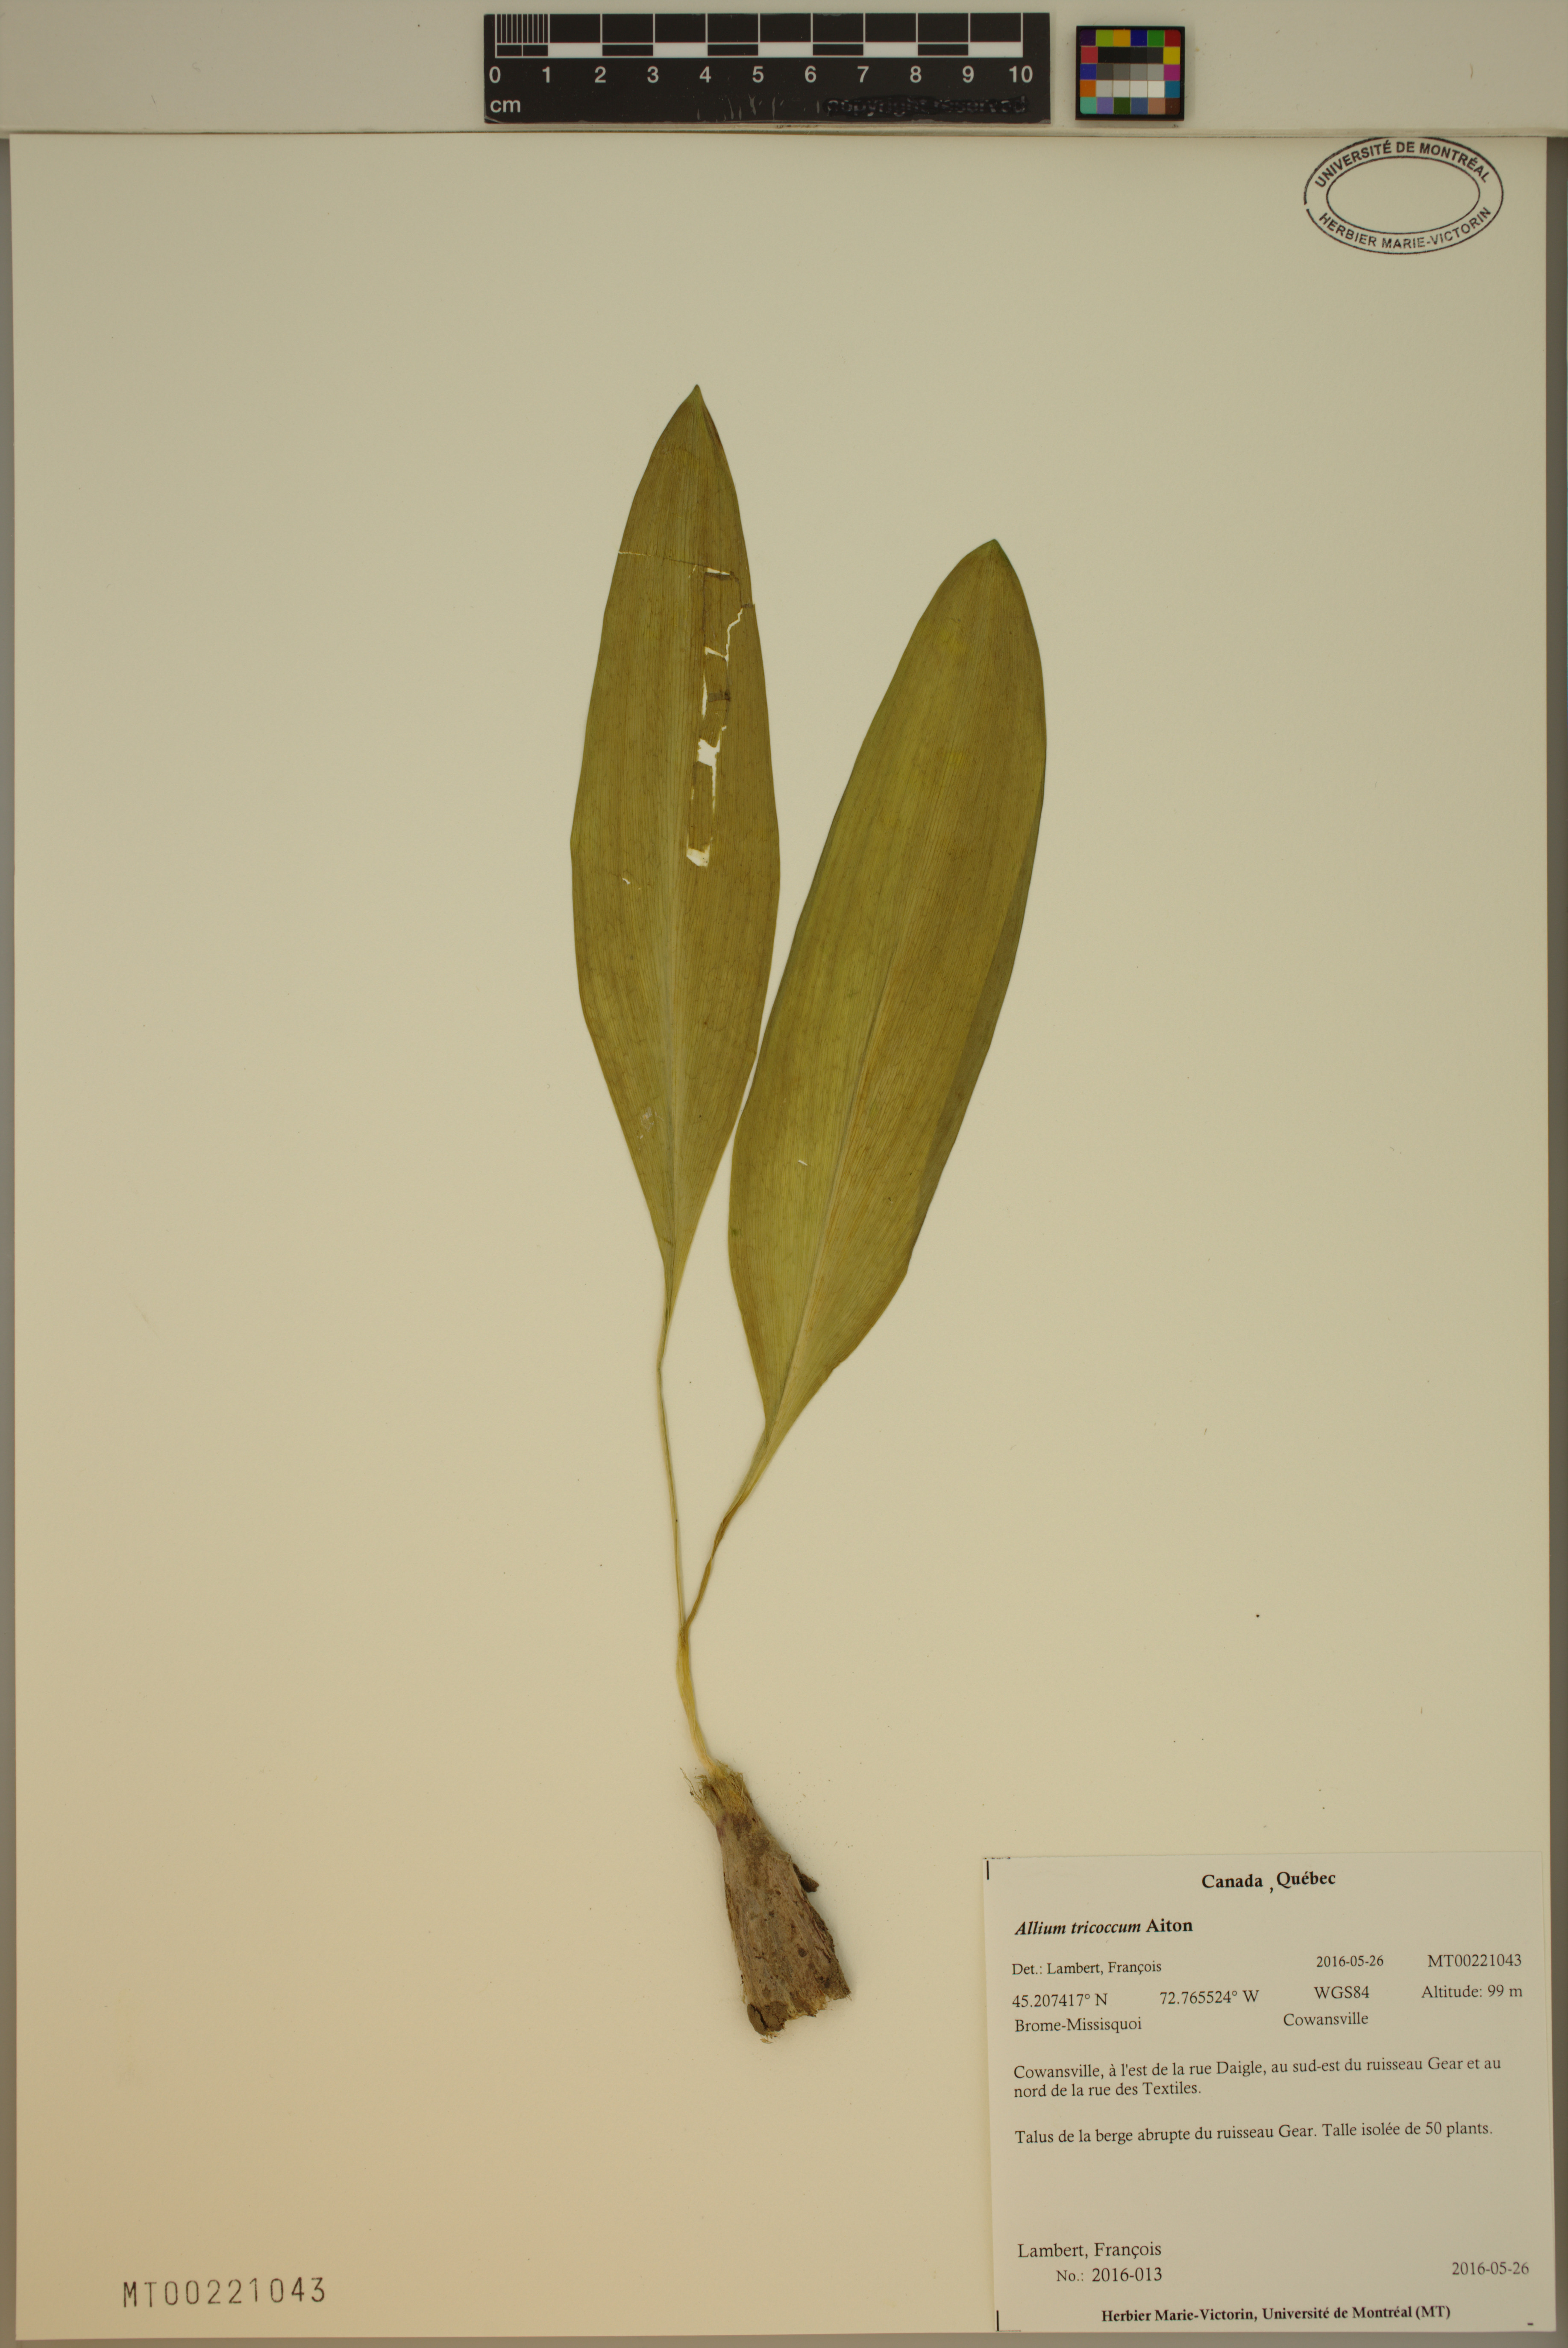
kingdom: Plantae
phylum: Tracheophyta
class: Liliopsida
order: Asparagales
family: Amaryllidaceae
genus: Allium
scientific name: Allium tricoccum
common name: Ramp
